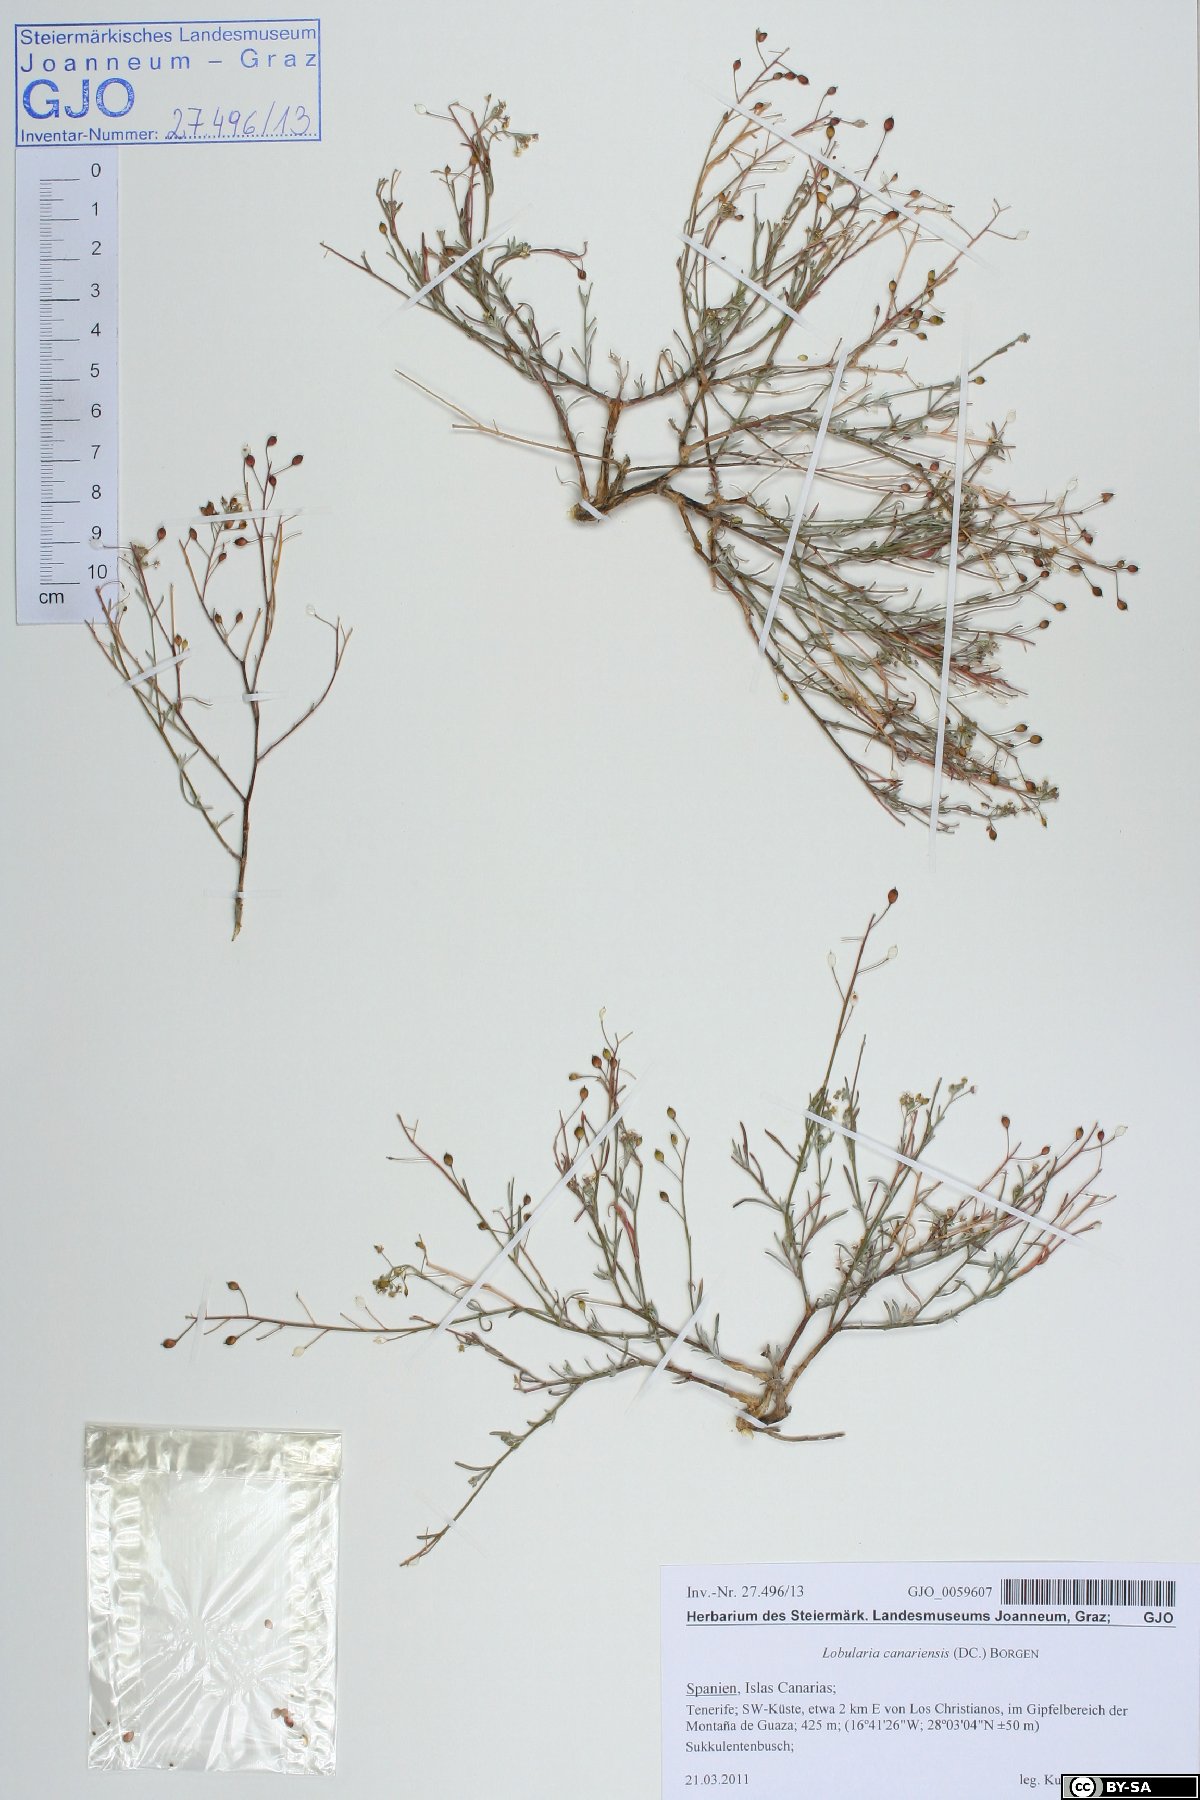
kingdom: Plantae
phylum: Tracheophyta
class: Magnoliopsida
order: Brassicales
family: Brassicaceae
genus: Lobularia
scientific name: Lobularia canariensis
